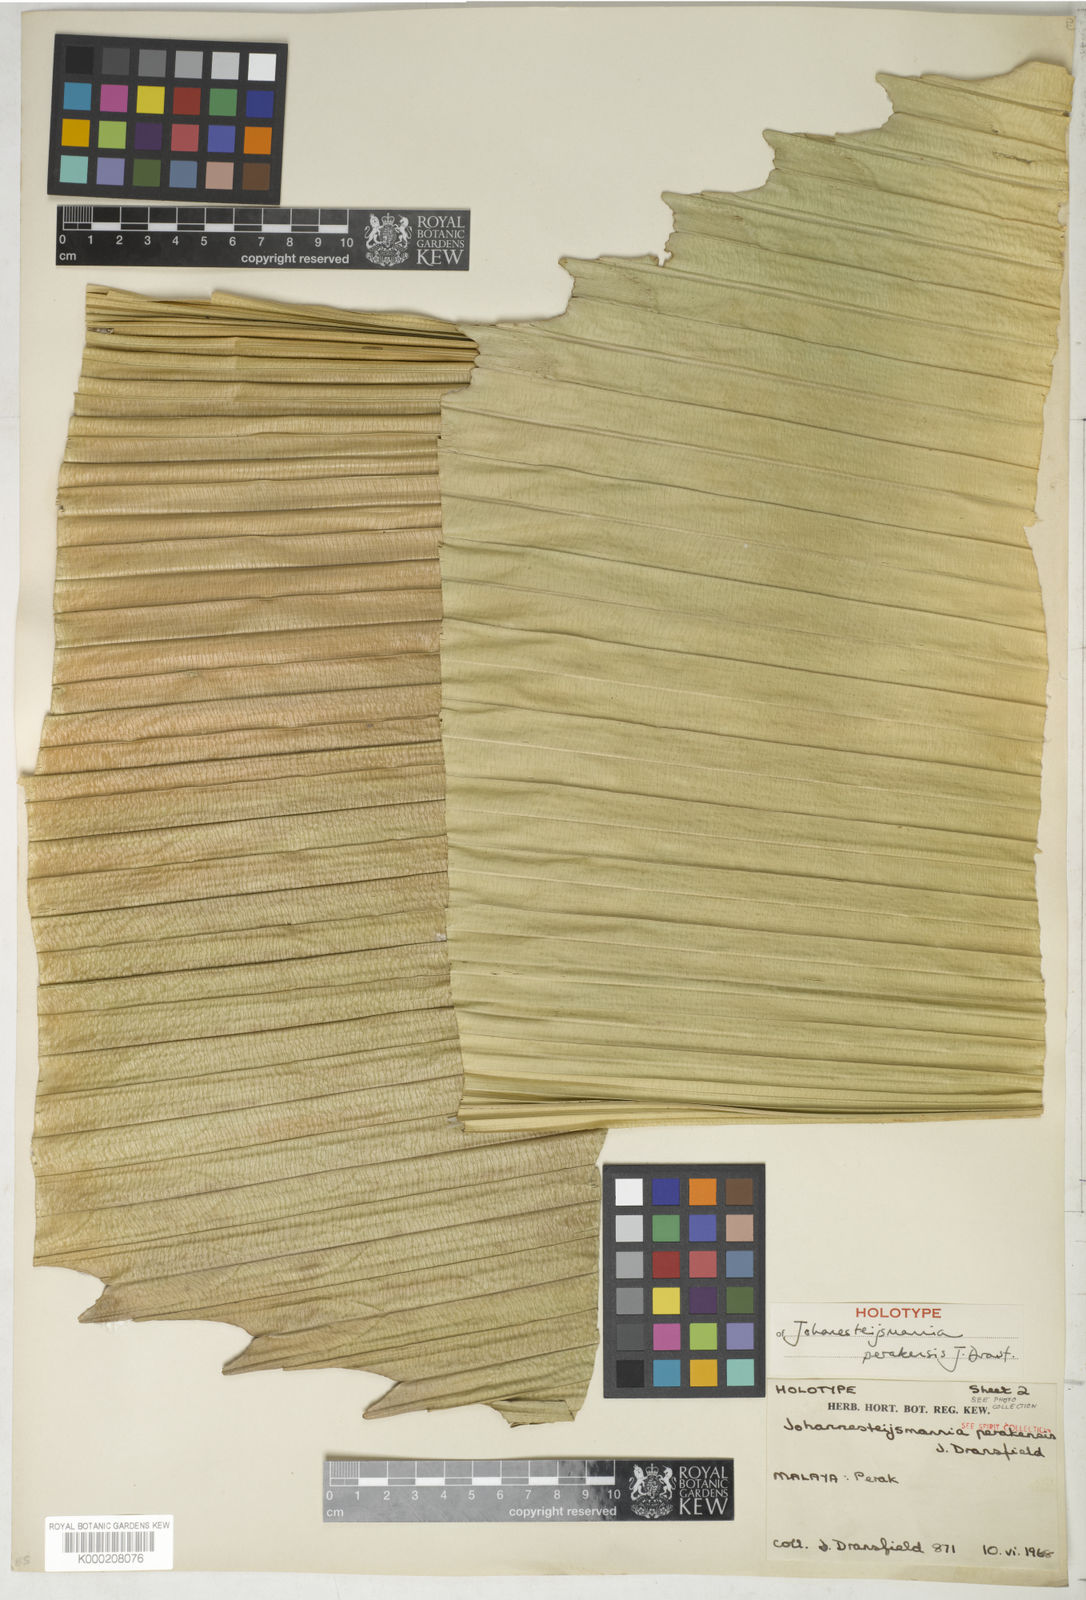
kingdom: Plantae
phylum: Tracheophyta
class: Liliopsida
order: Arecales
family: Arecaceae
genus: Johannesteijsmannia
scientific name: Johannesteijsmannia perakensis
